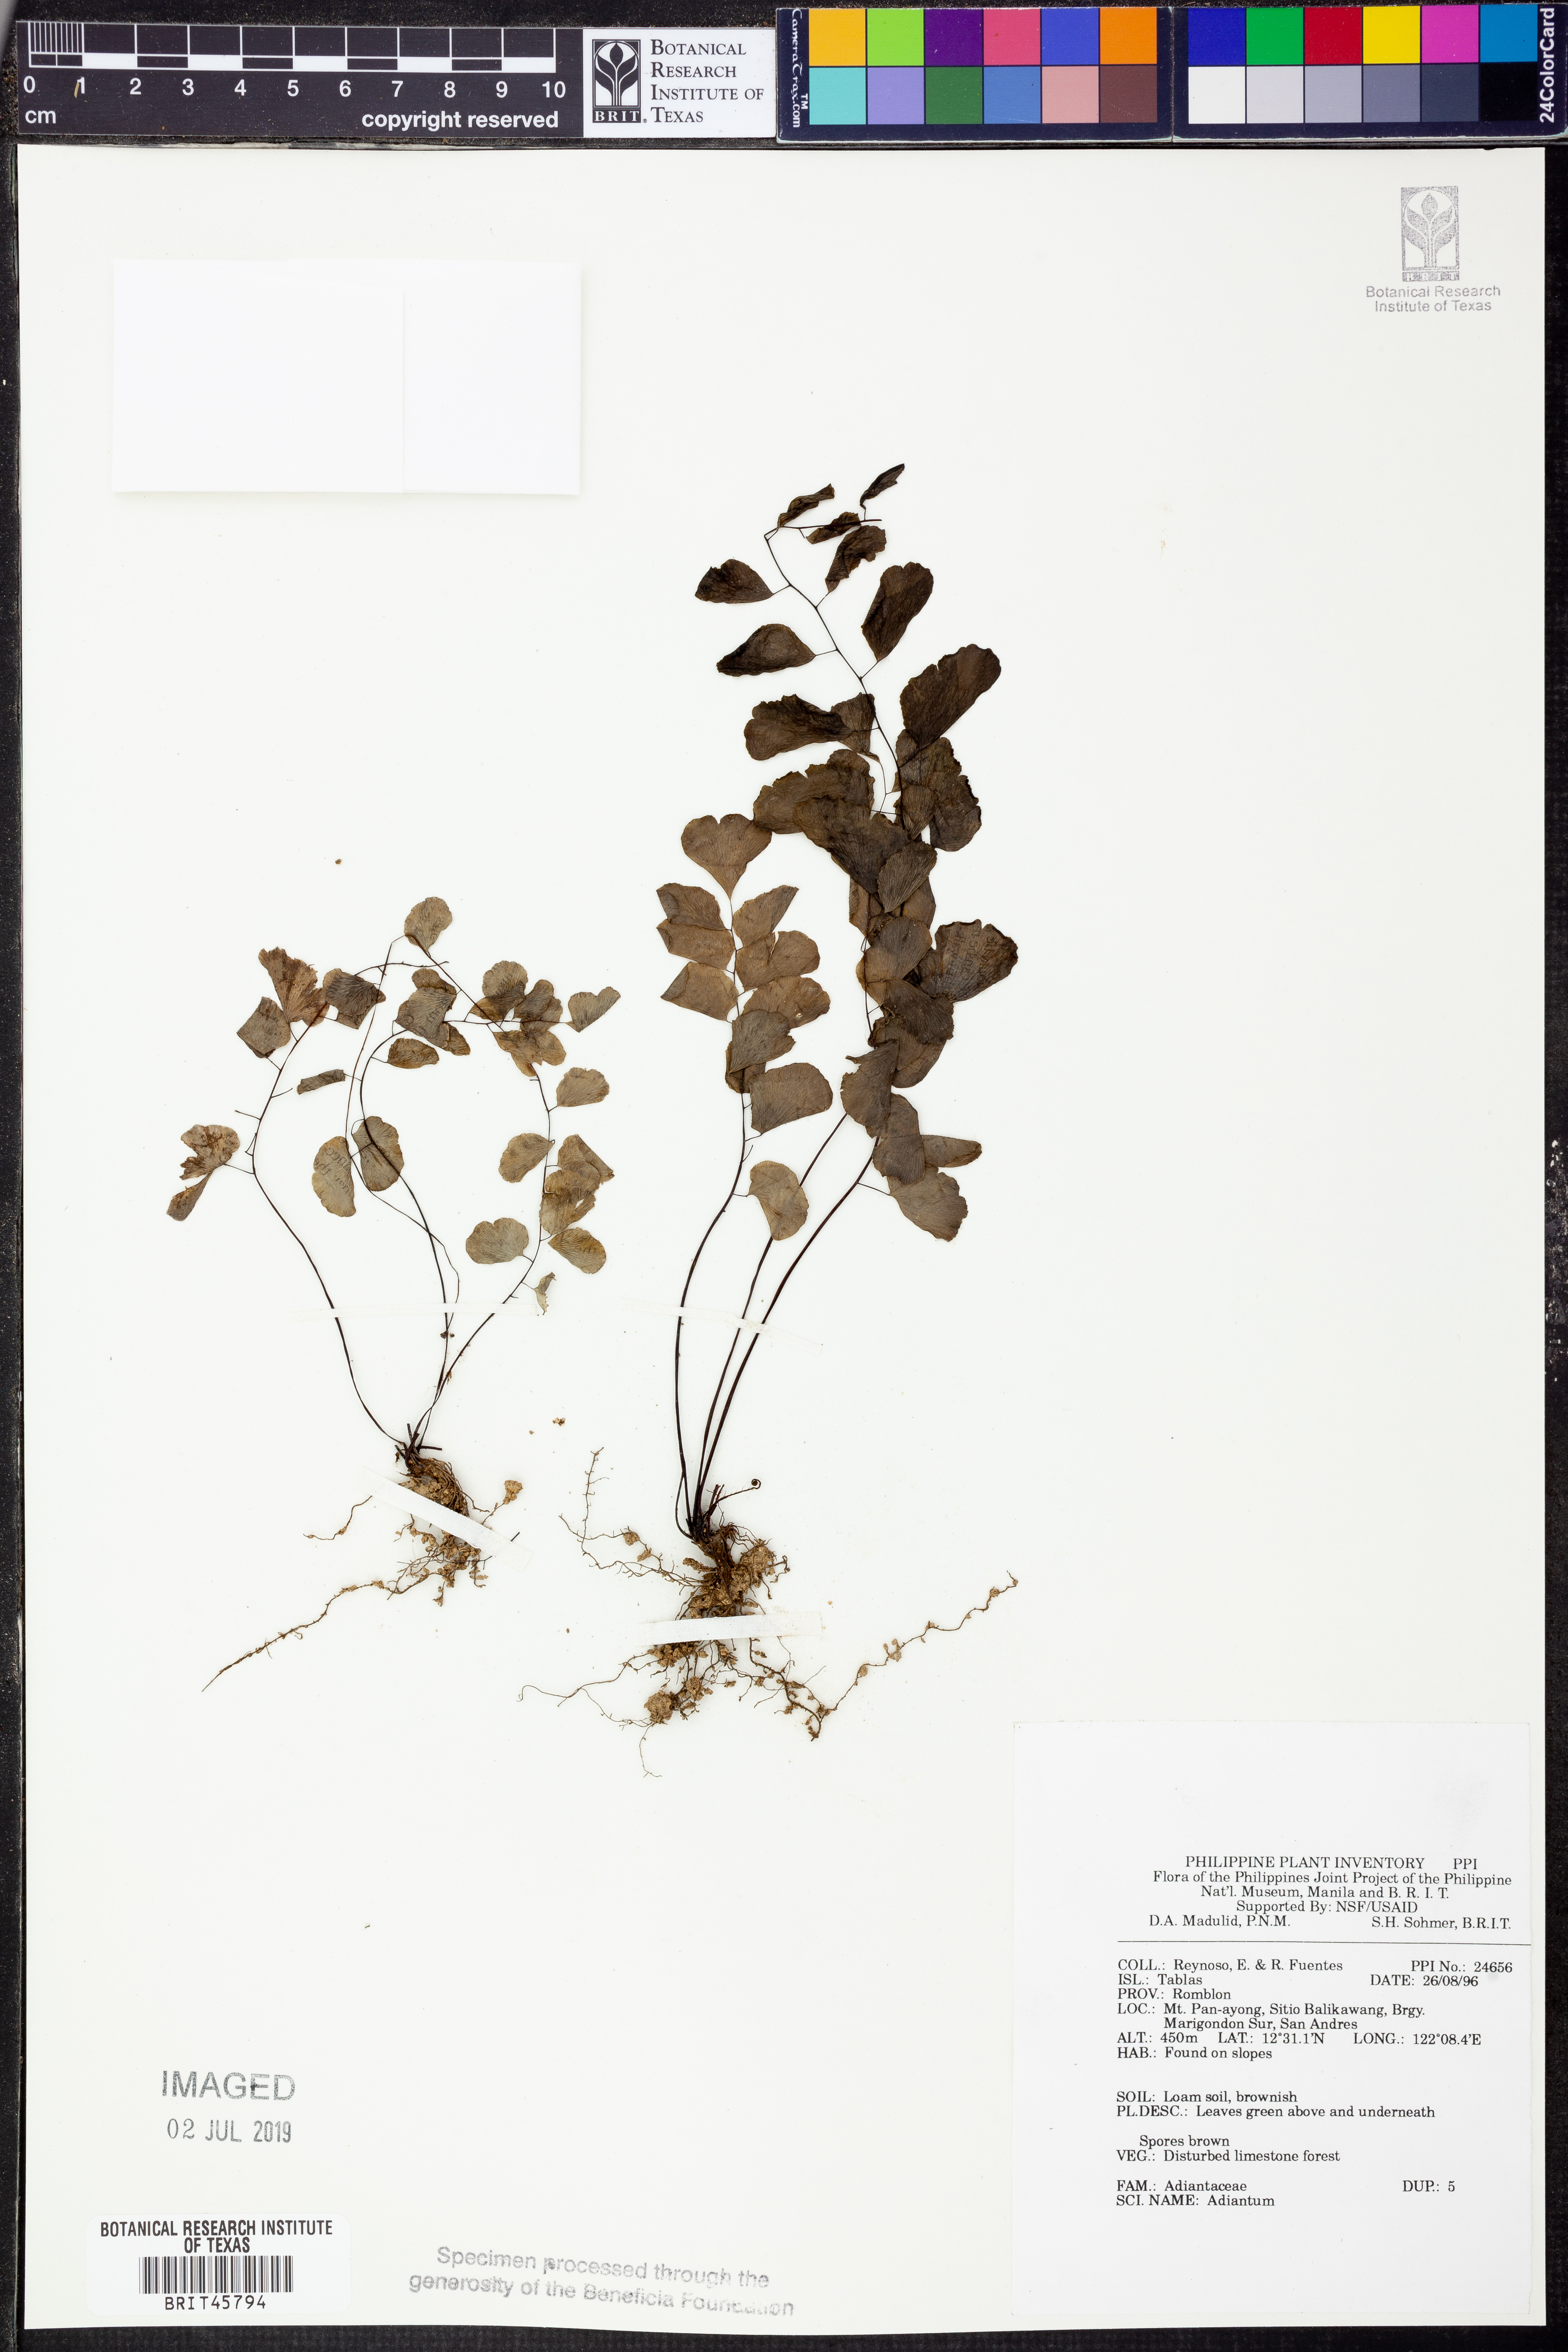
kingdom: Plantae
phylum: Tracheophyta
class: Polypodiopsida
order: Polypodiales
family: Pteridaceae
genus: Adiantum
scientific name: Adiantum
